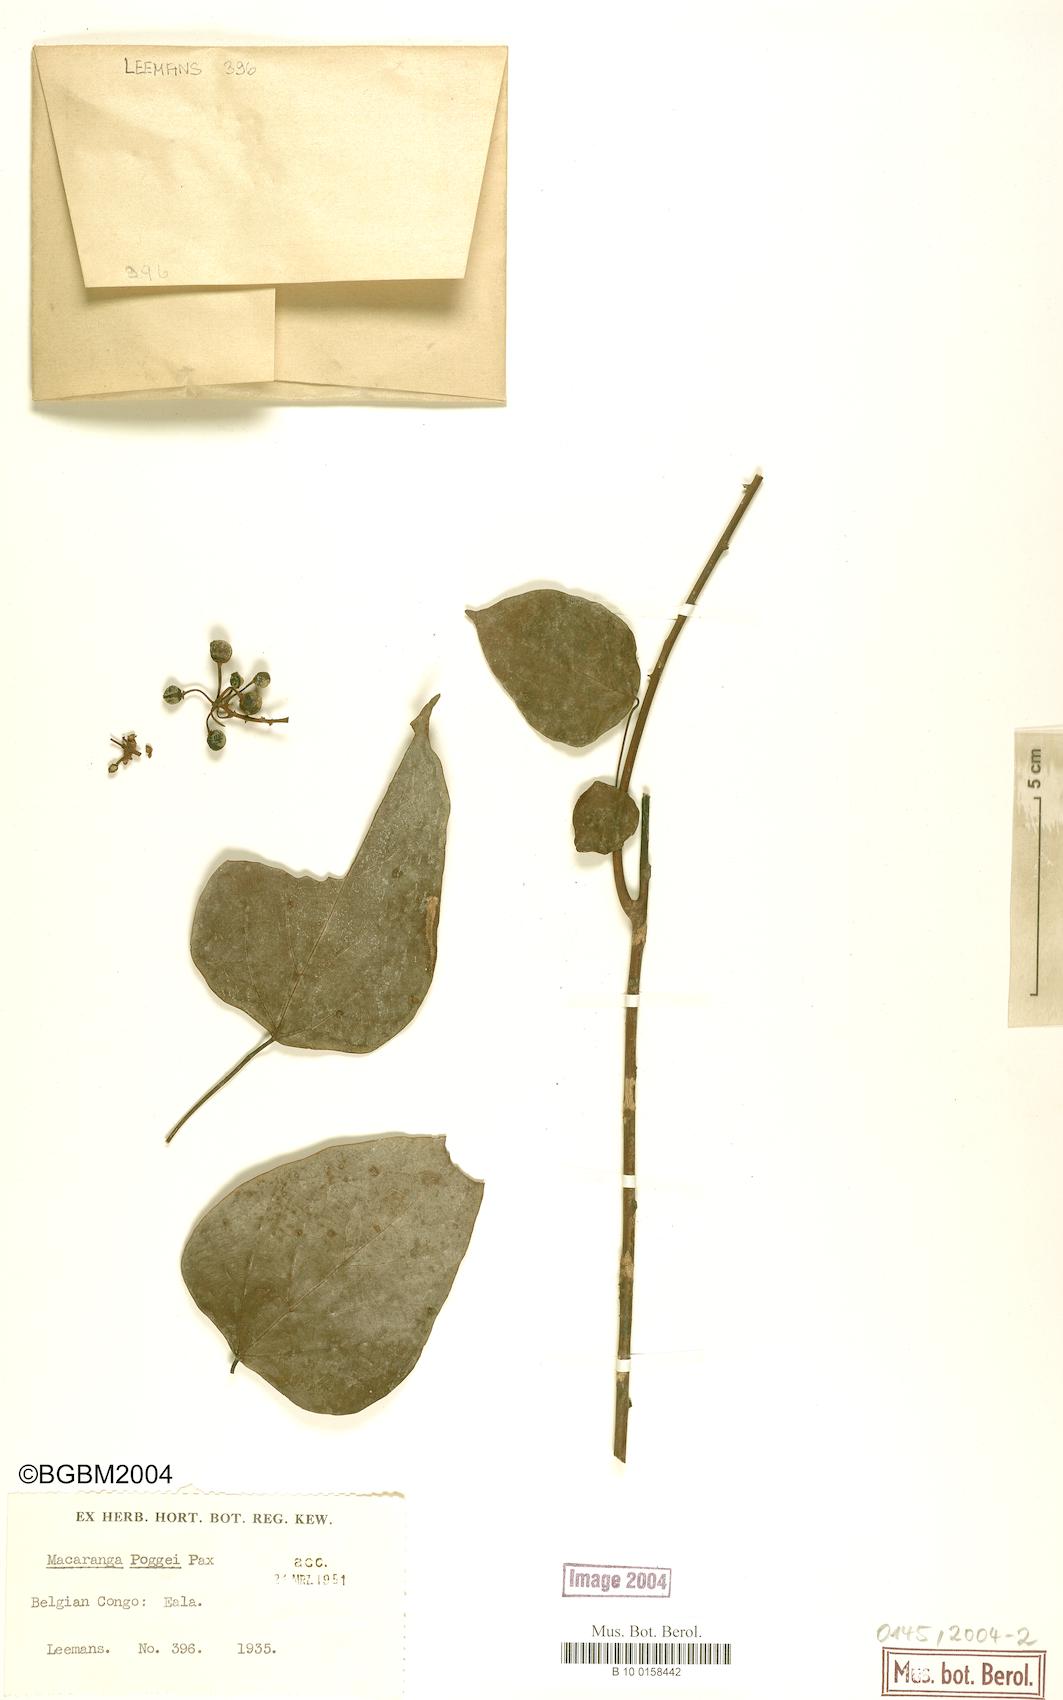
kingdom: Plantae
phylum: Tracheophyta
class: Magnoliopsida
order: Malpighiales
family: Euphorbiaceae
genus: Macaranga
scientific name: Macaranga poggei
